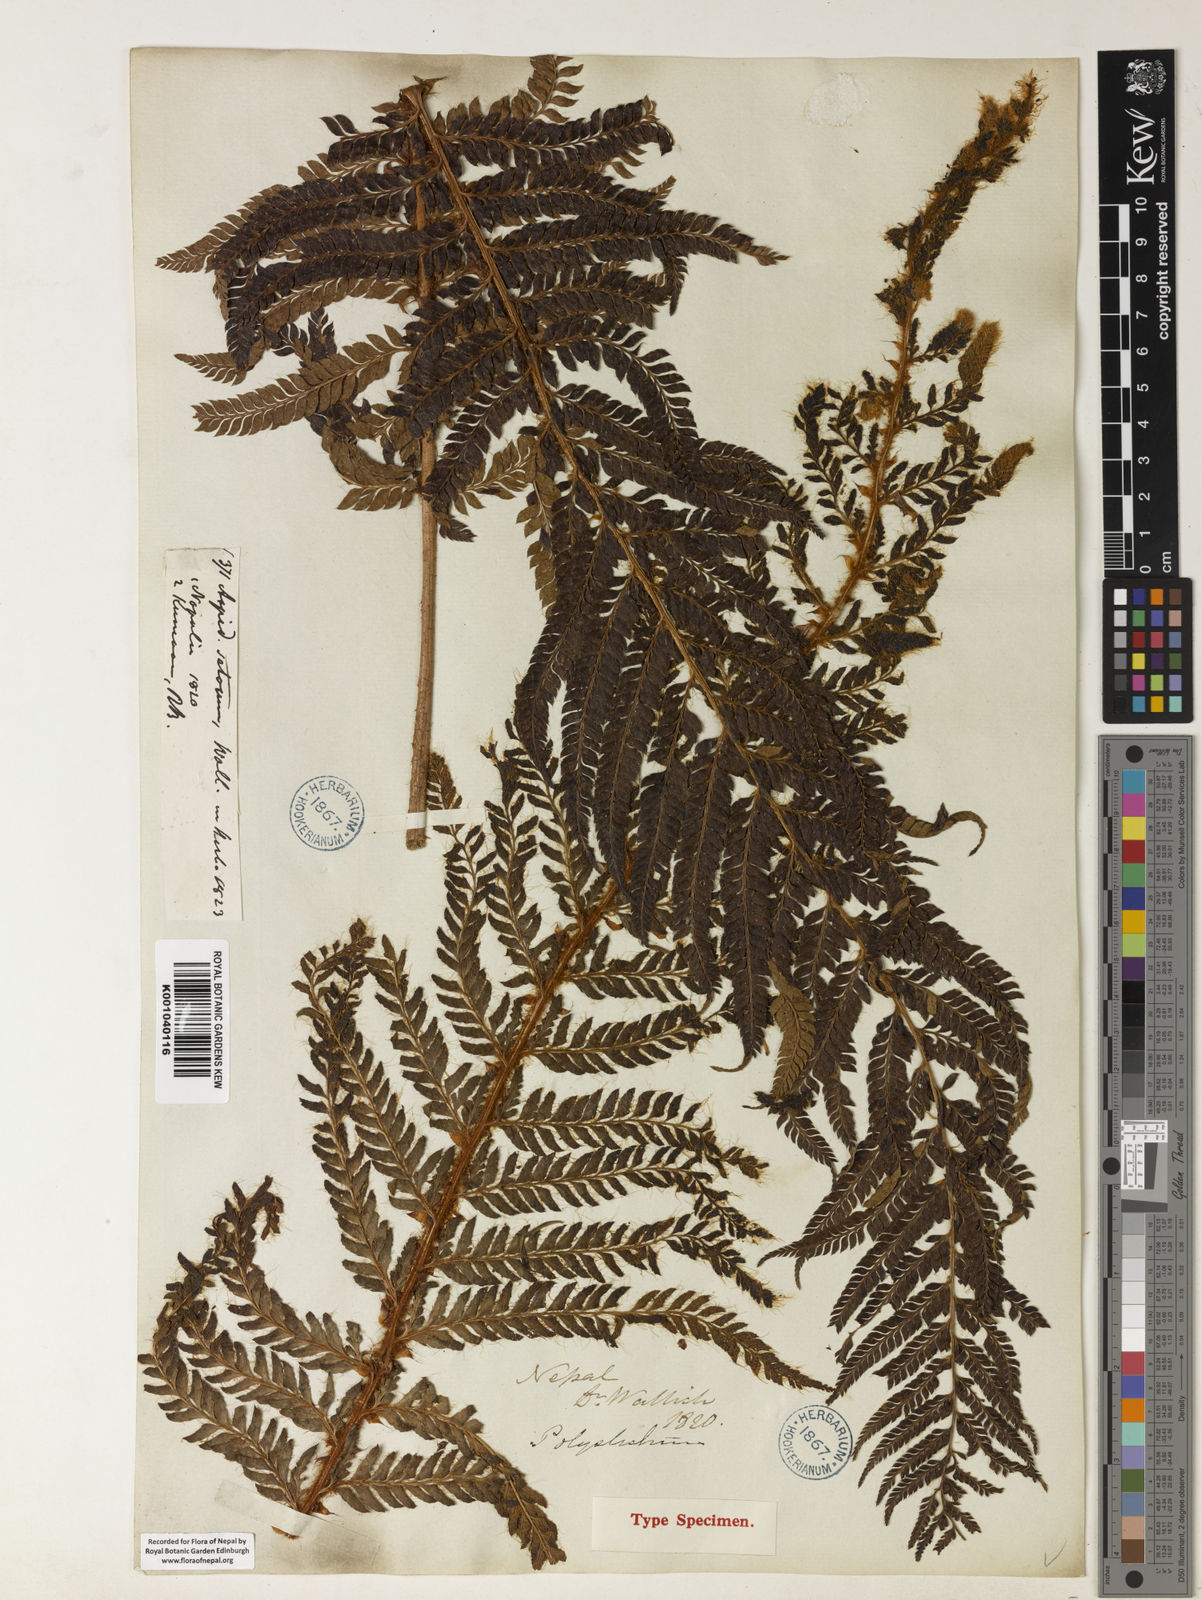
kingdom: Plantae
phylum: Tracheophyta
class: Polypodiopsida
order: Polypodiales
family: Dryopteridaceae
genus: Polystichum
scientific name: Polystichum
